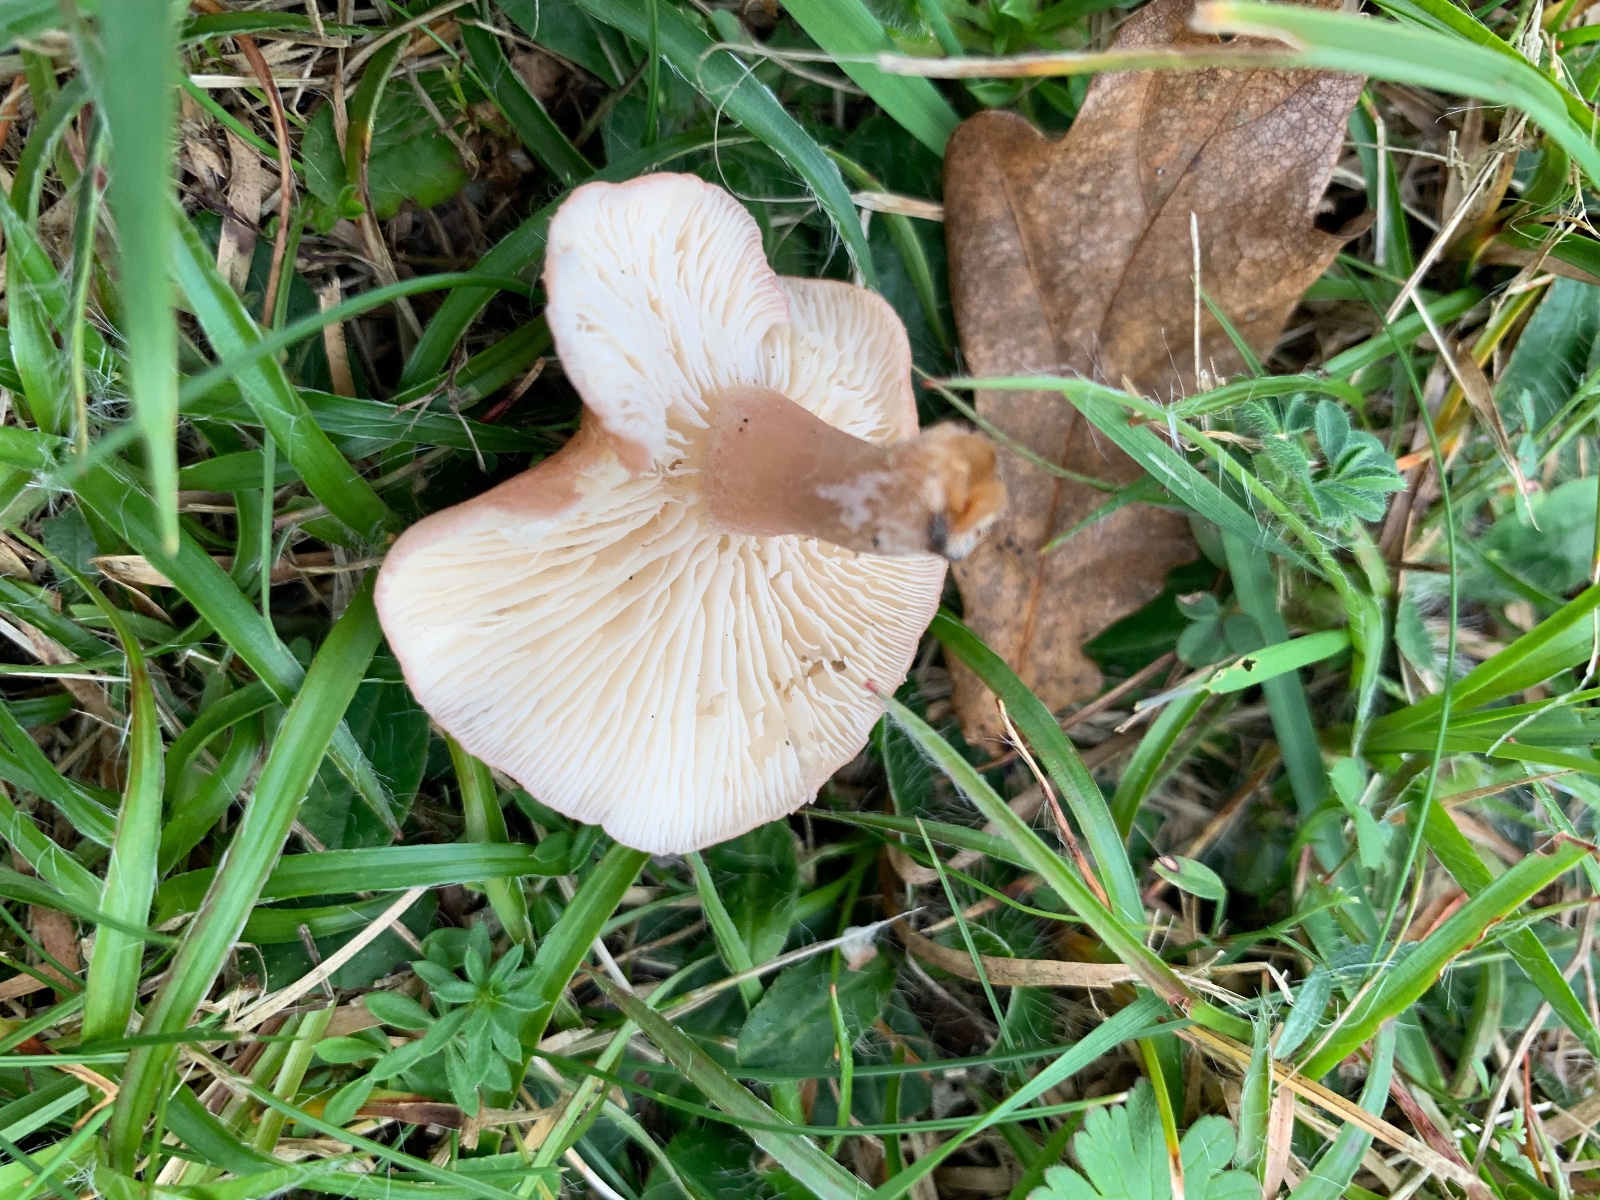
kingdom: Fungi
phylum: Basidiomycota
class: Agaricomycetes
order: Agaricales
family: Lyophyllaceae
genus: Calocybe
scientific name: Calocybe carnea
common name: rosa fagerhat
